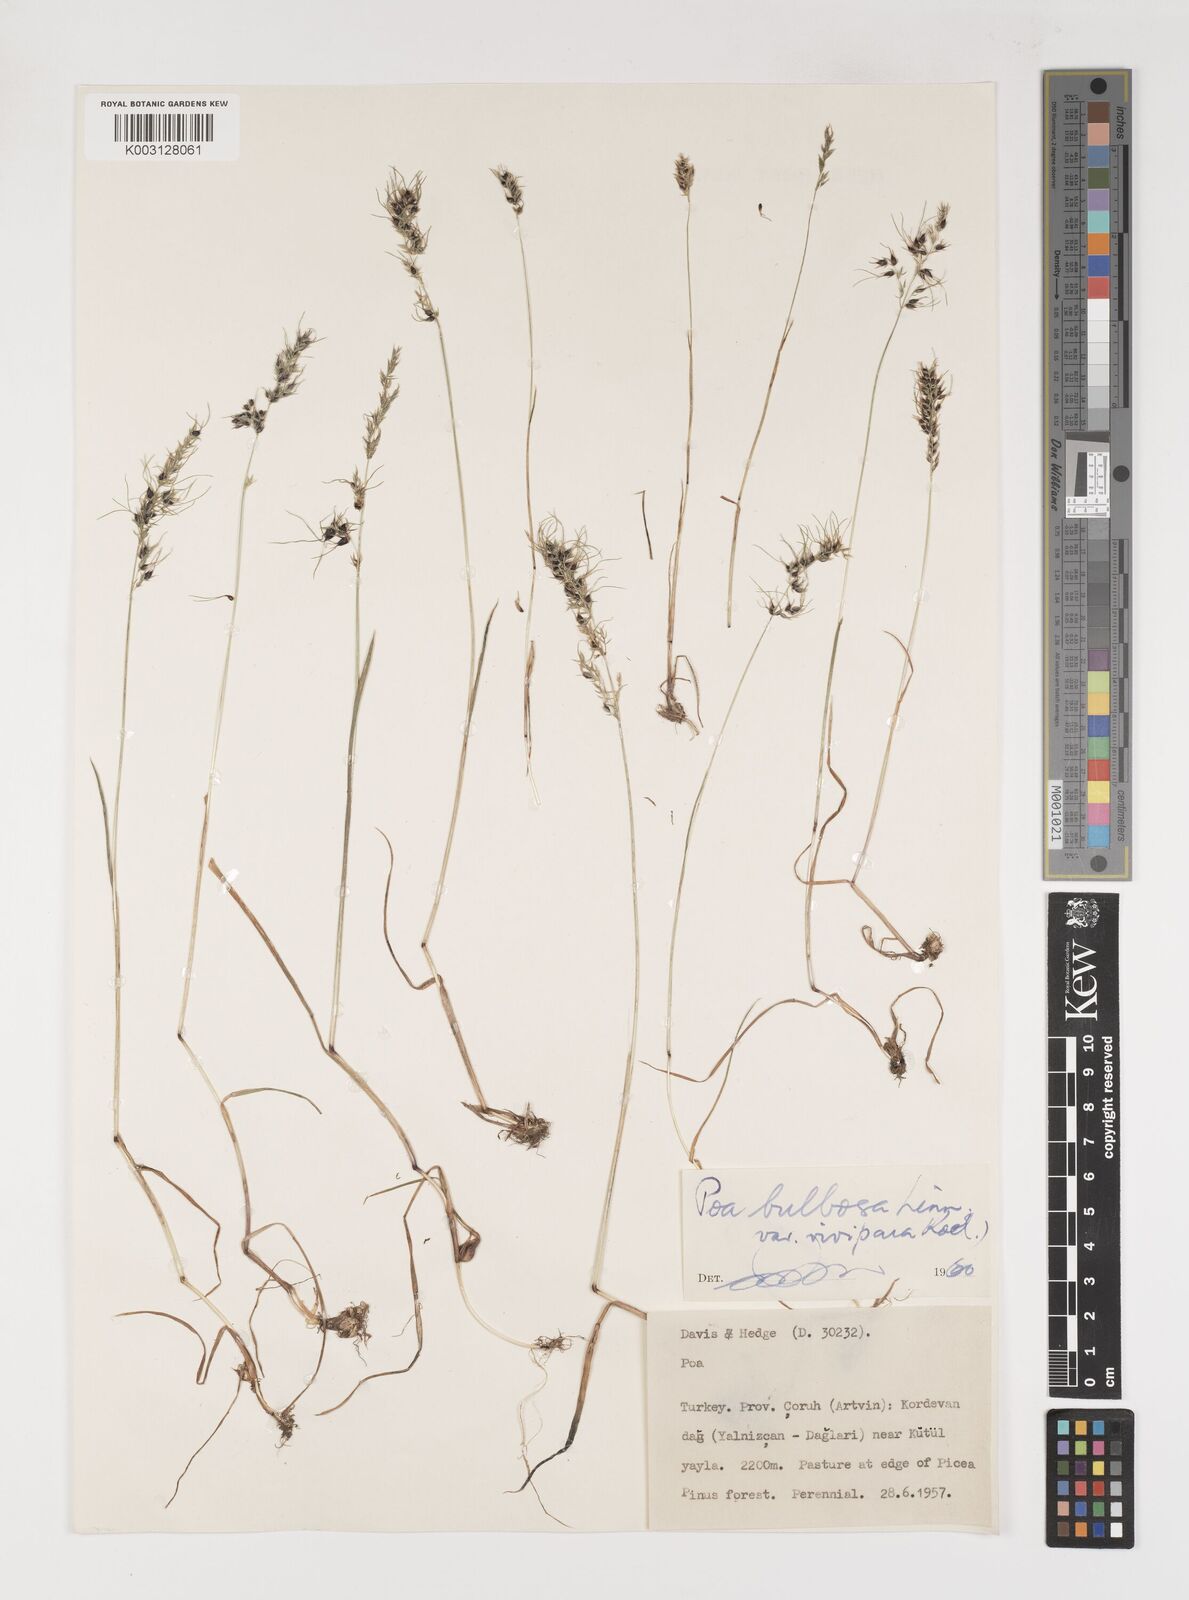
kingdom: Plantae
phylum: Tracheophyta
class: Liliopsida
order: Poales
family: Poaceae
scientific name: Poaceae
